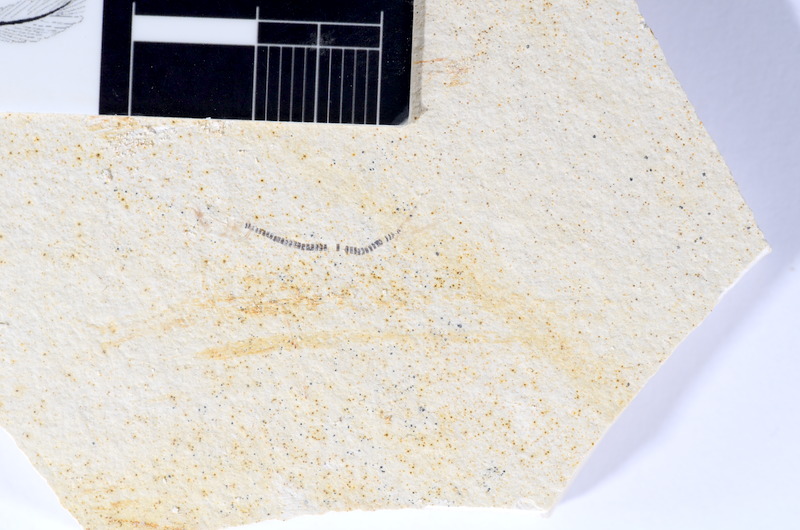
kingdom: Animalia
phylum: Chordata
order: Salmoniformes
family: Orthogonikleithridae
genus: Orthogonikleithrus
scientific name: Orthogonikleithrus hoelli
